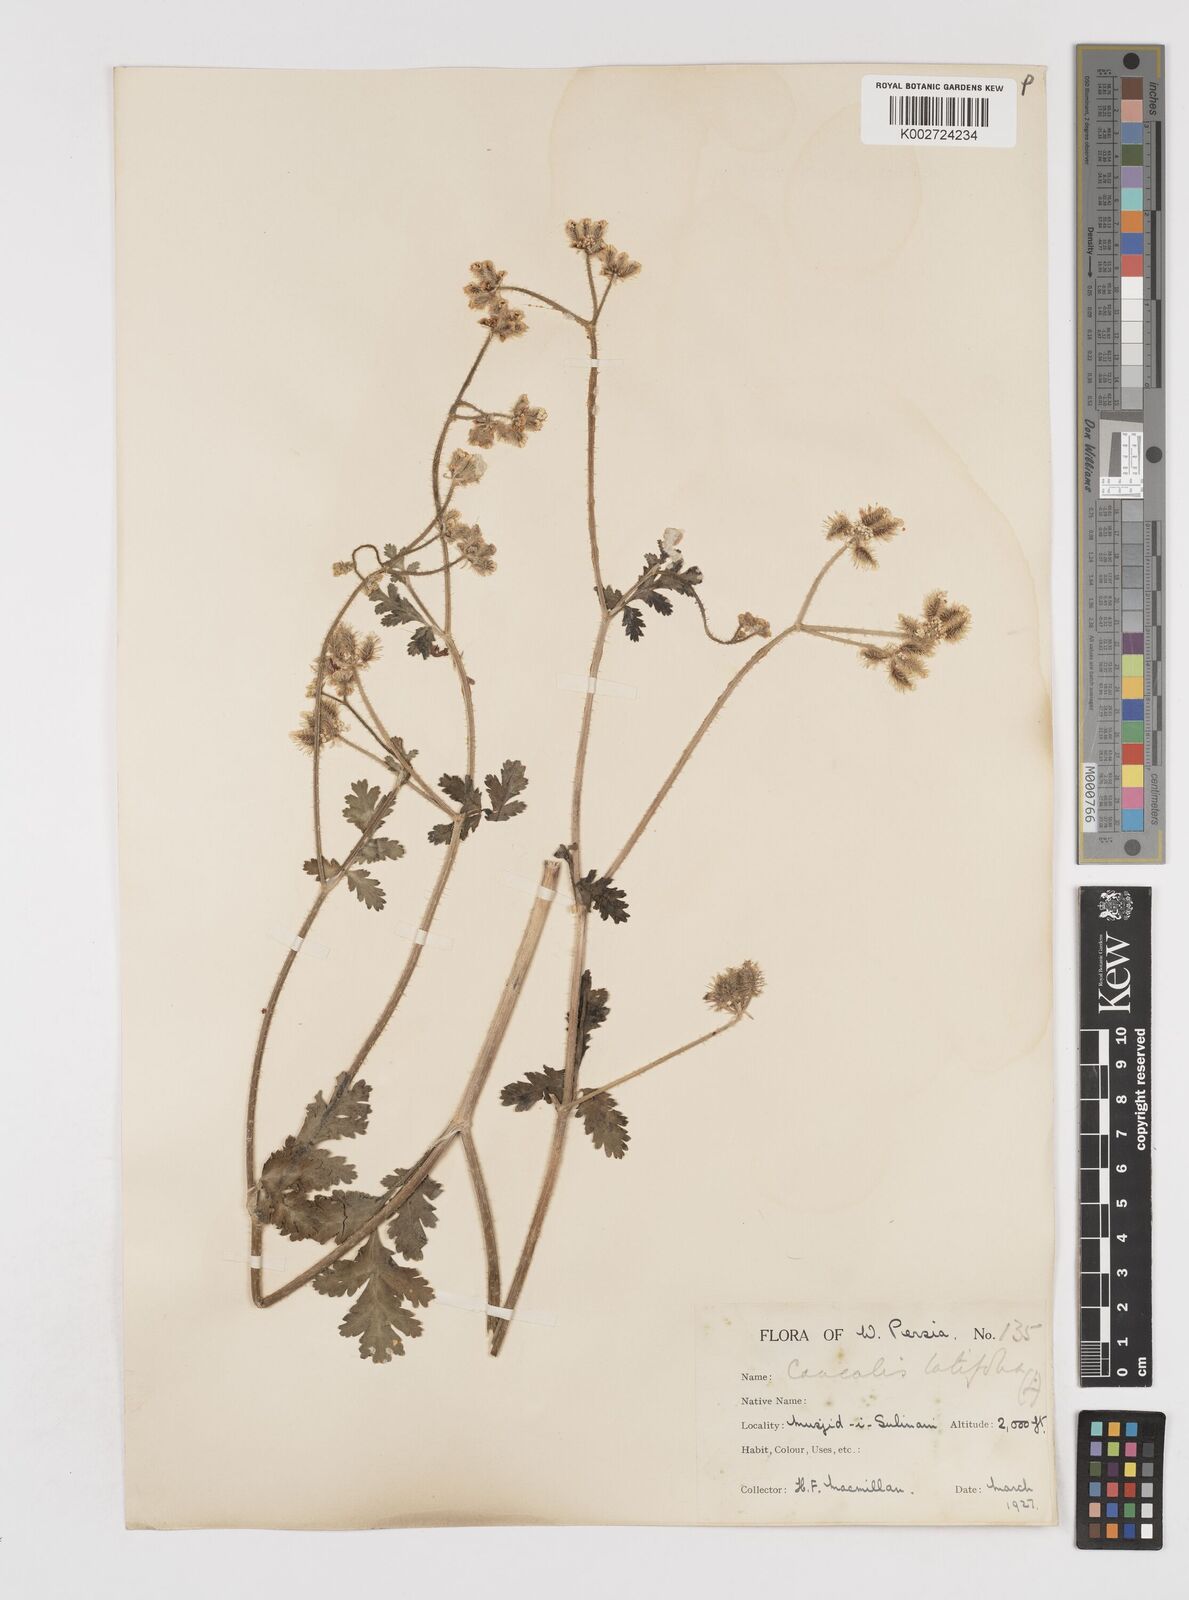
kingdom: Plantae
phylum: Tracheophyta
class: Magnoliopsida
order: Apiales
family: Apiaceae
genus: Turgenia
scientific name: Turgenia latifolia
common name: Greater bur-parsley
